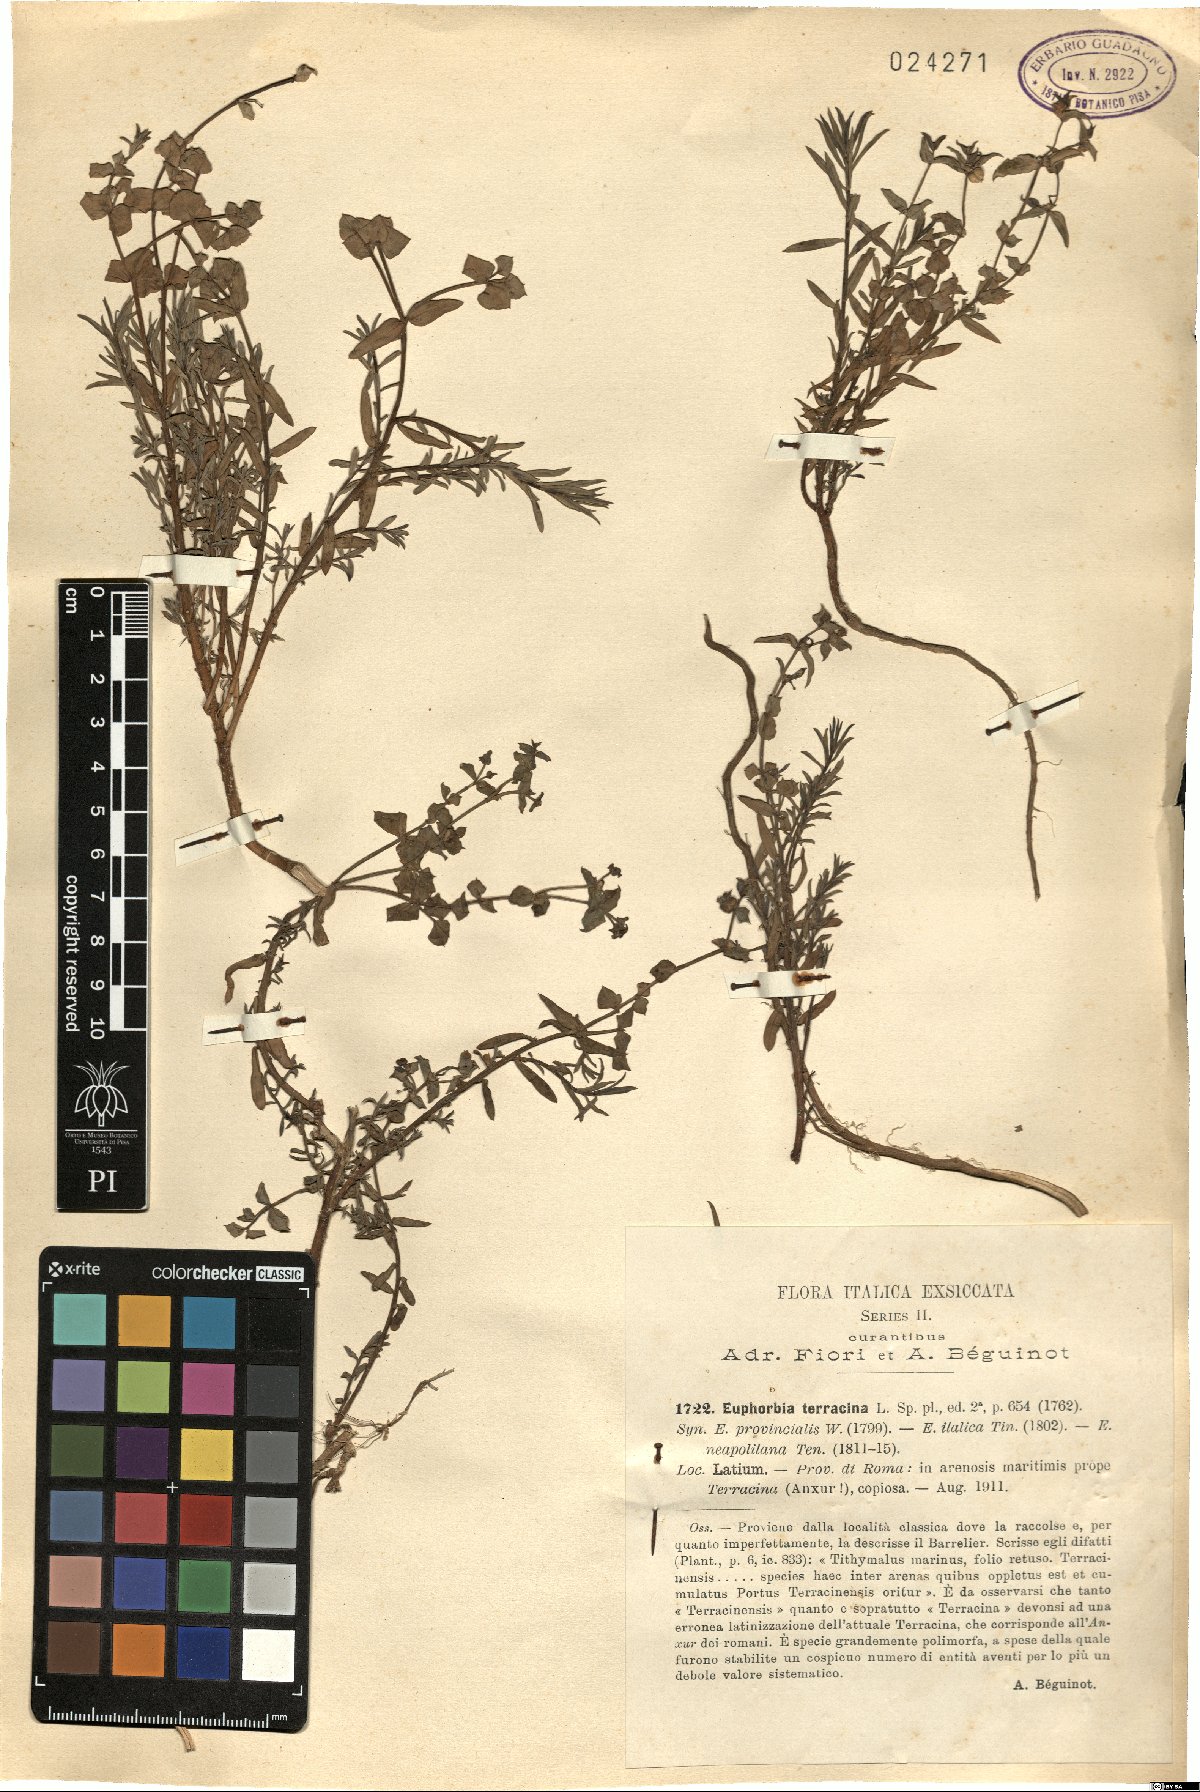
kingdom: Plantae
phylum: Tracheophyta
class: Magnoliopsida
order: Malpighiales
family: Euphorbiaceae
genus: Euphorbia
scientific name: Euphorbia terracina
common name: Geraldton carnation weed
